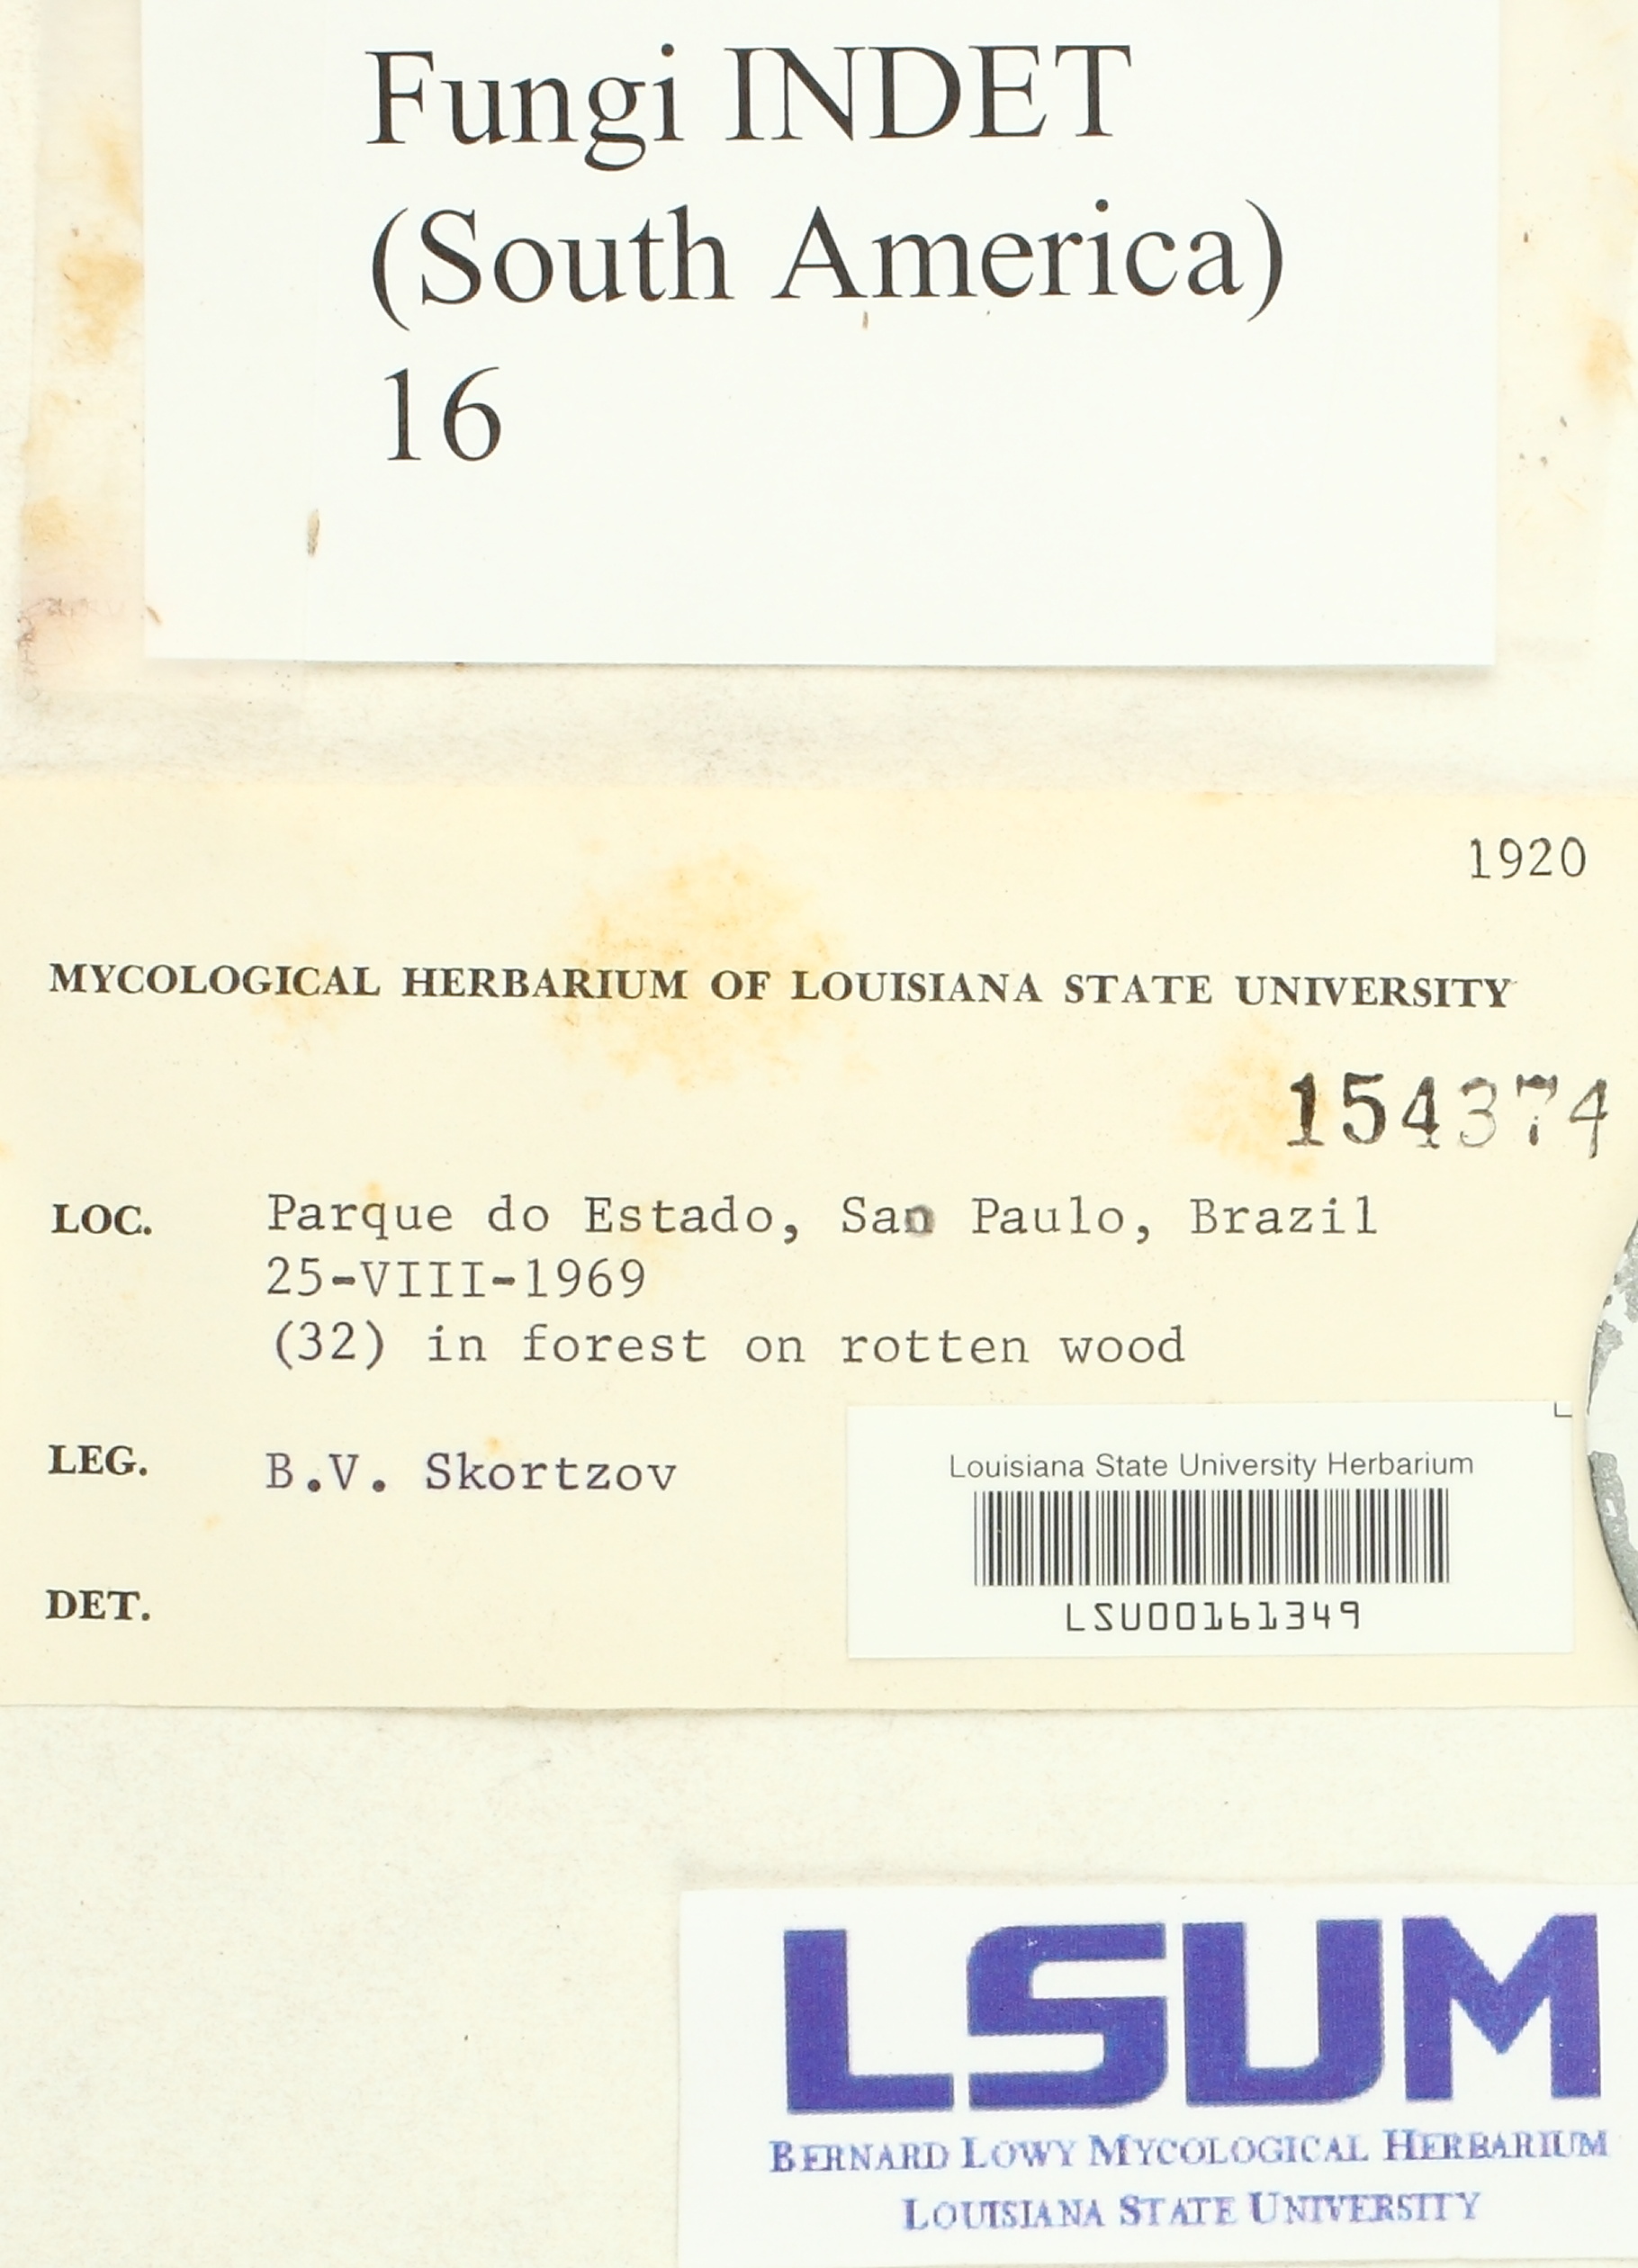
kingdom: Fungi
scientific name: Fungi
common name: Fungi
